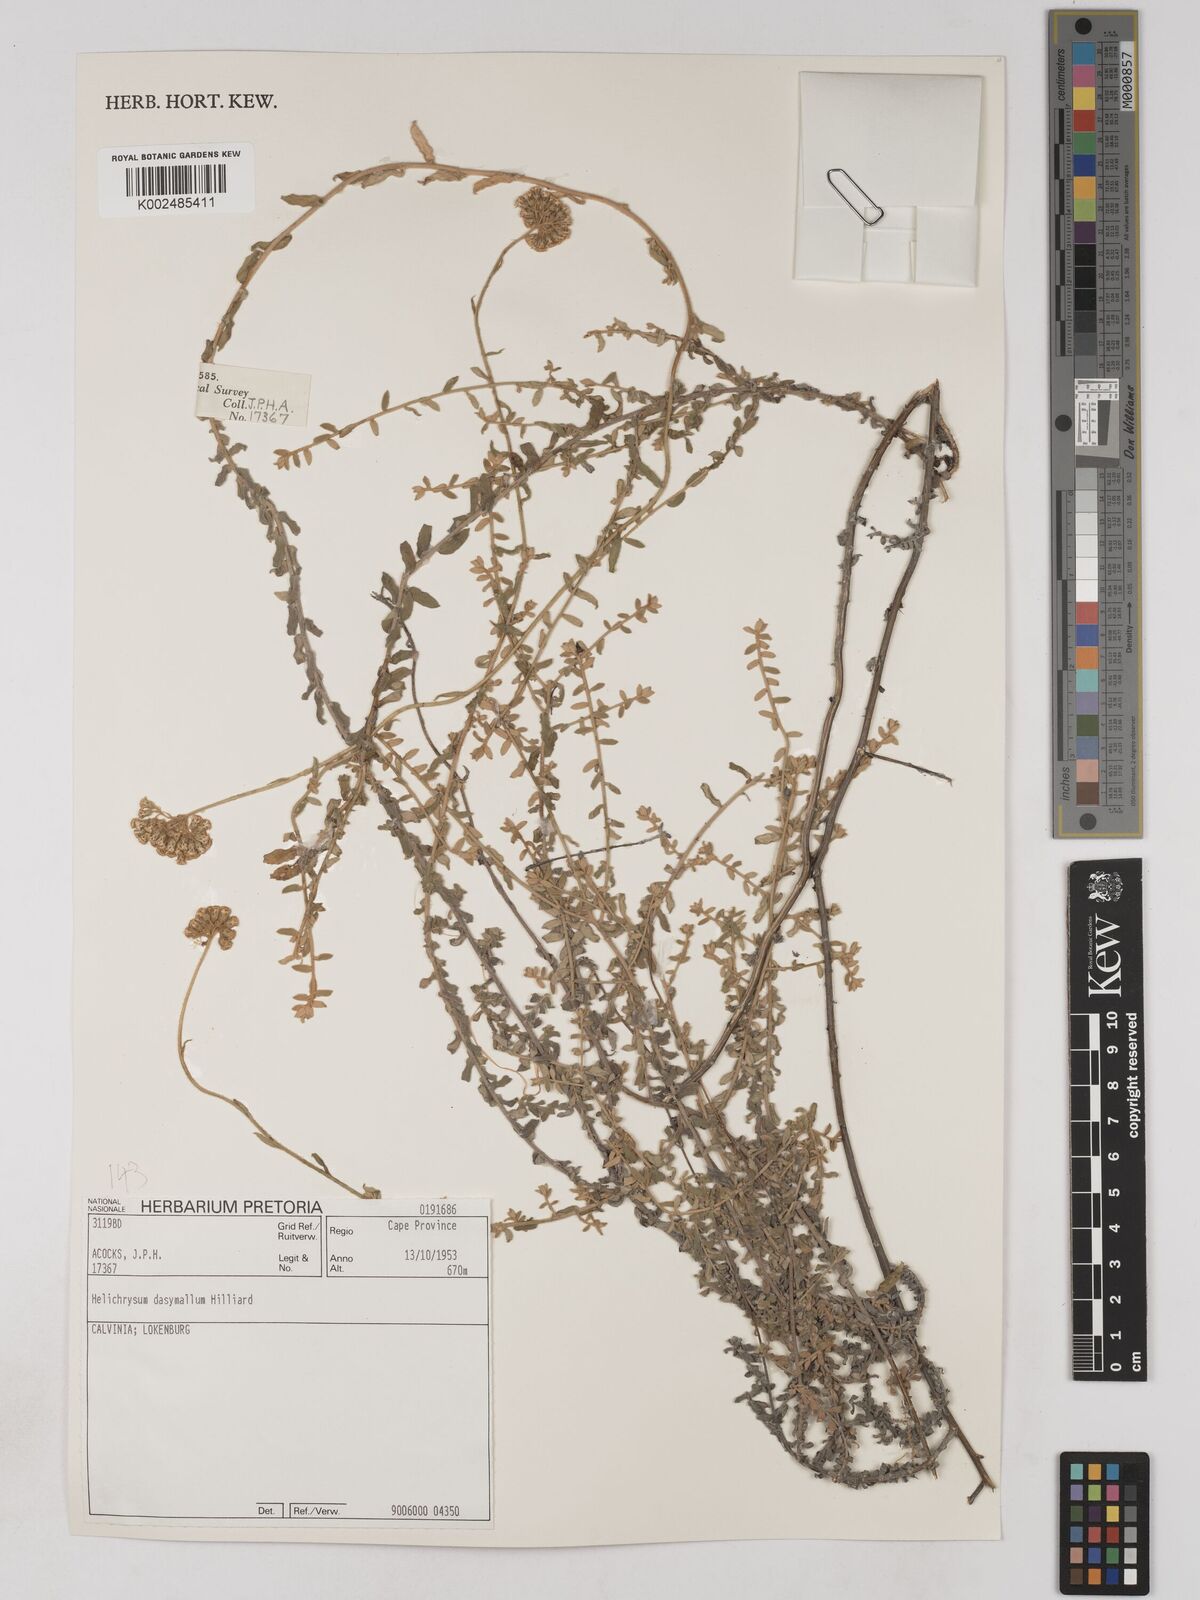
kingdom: Plantae
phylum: Tracheophyta
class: Magnoliopsida
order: Asterales
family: Asteraceae
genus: Helichrysum
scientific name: Helichrysum dasymallum
